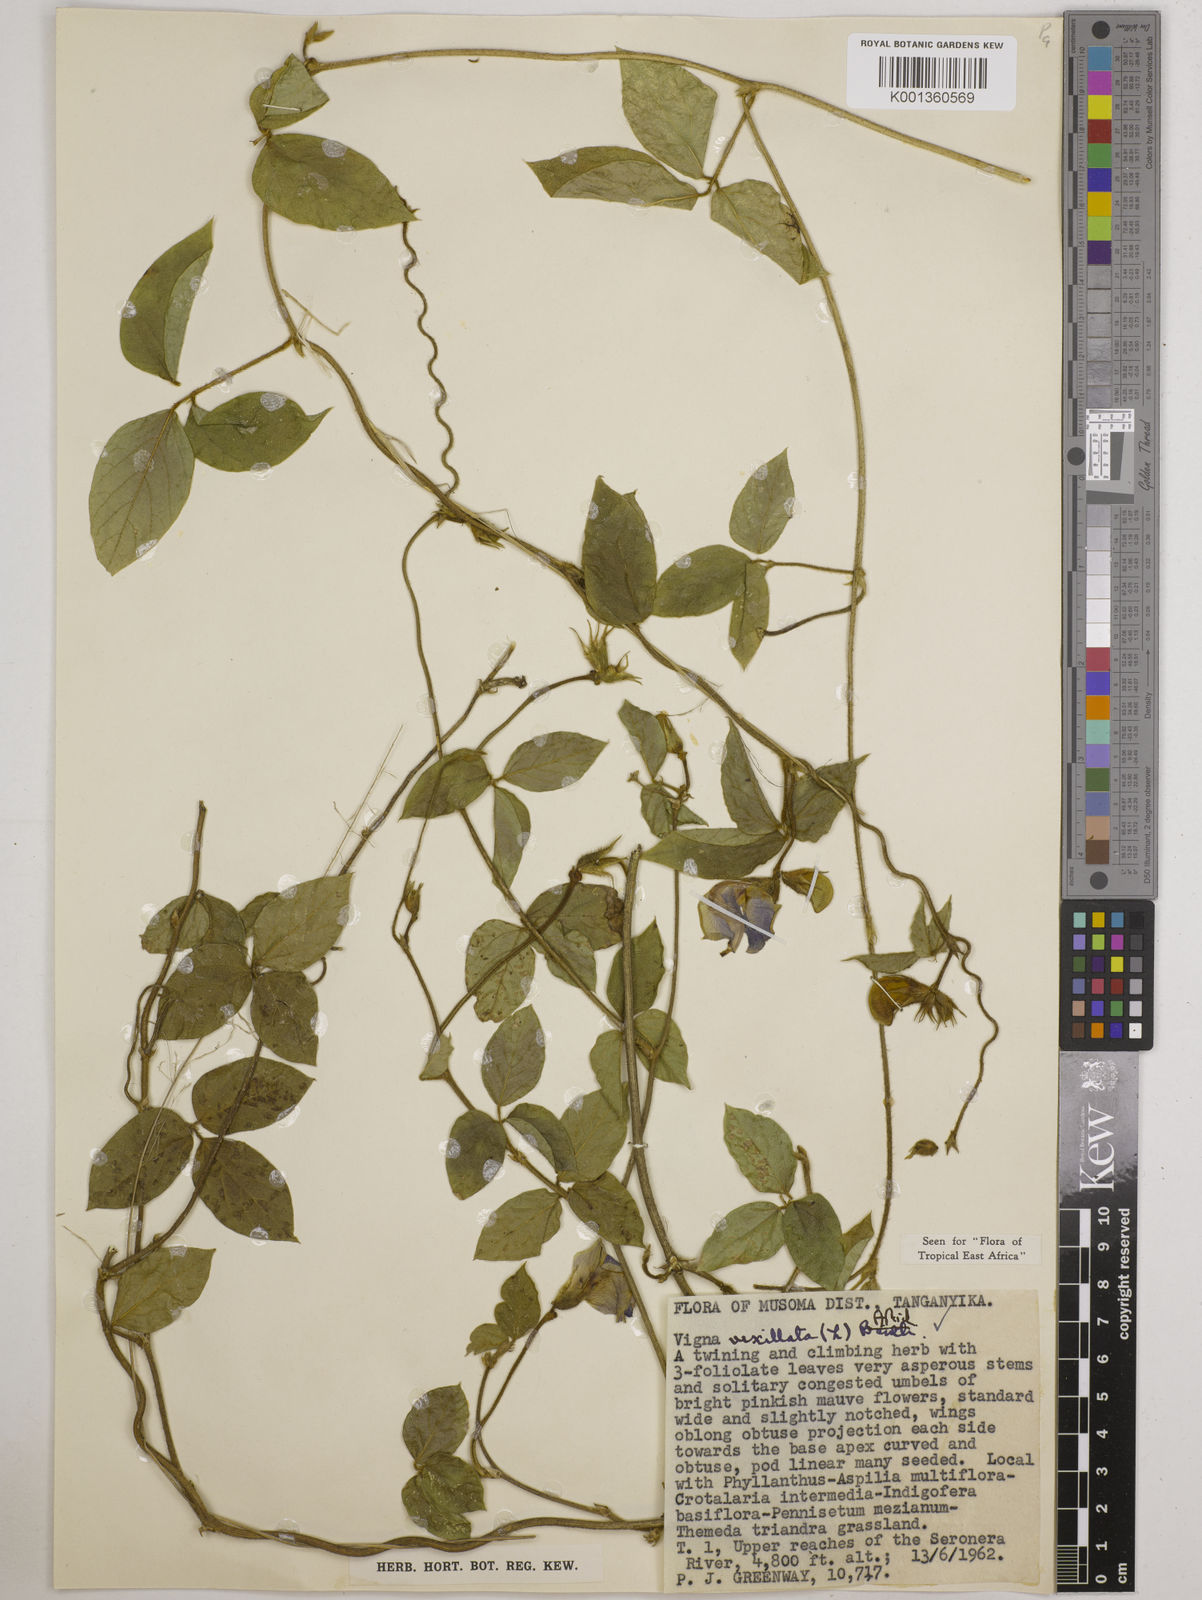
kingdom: Plantae
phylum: Tracheophyta
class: Magnoliopsida
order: Fabales
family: Fabaceae
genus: Vigna
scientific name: Vigna vexillata
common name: Zombi pea
